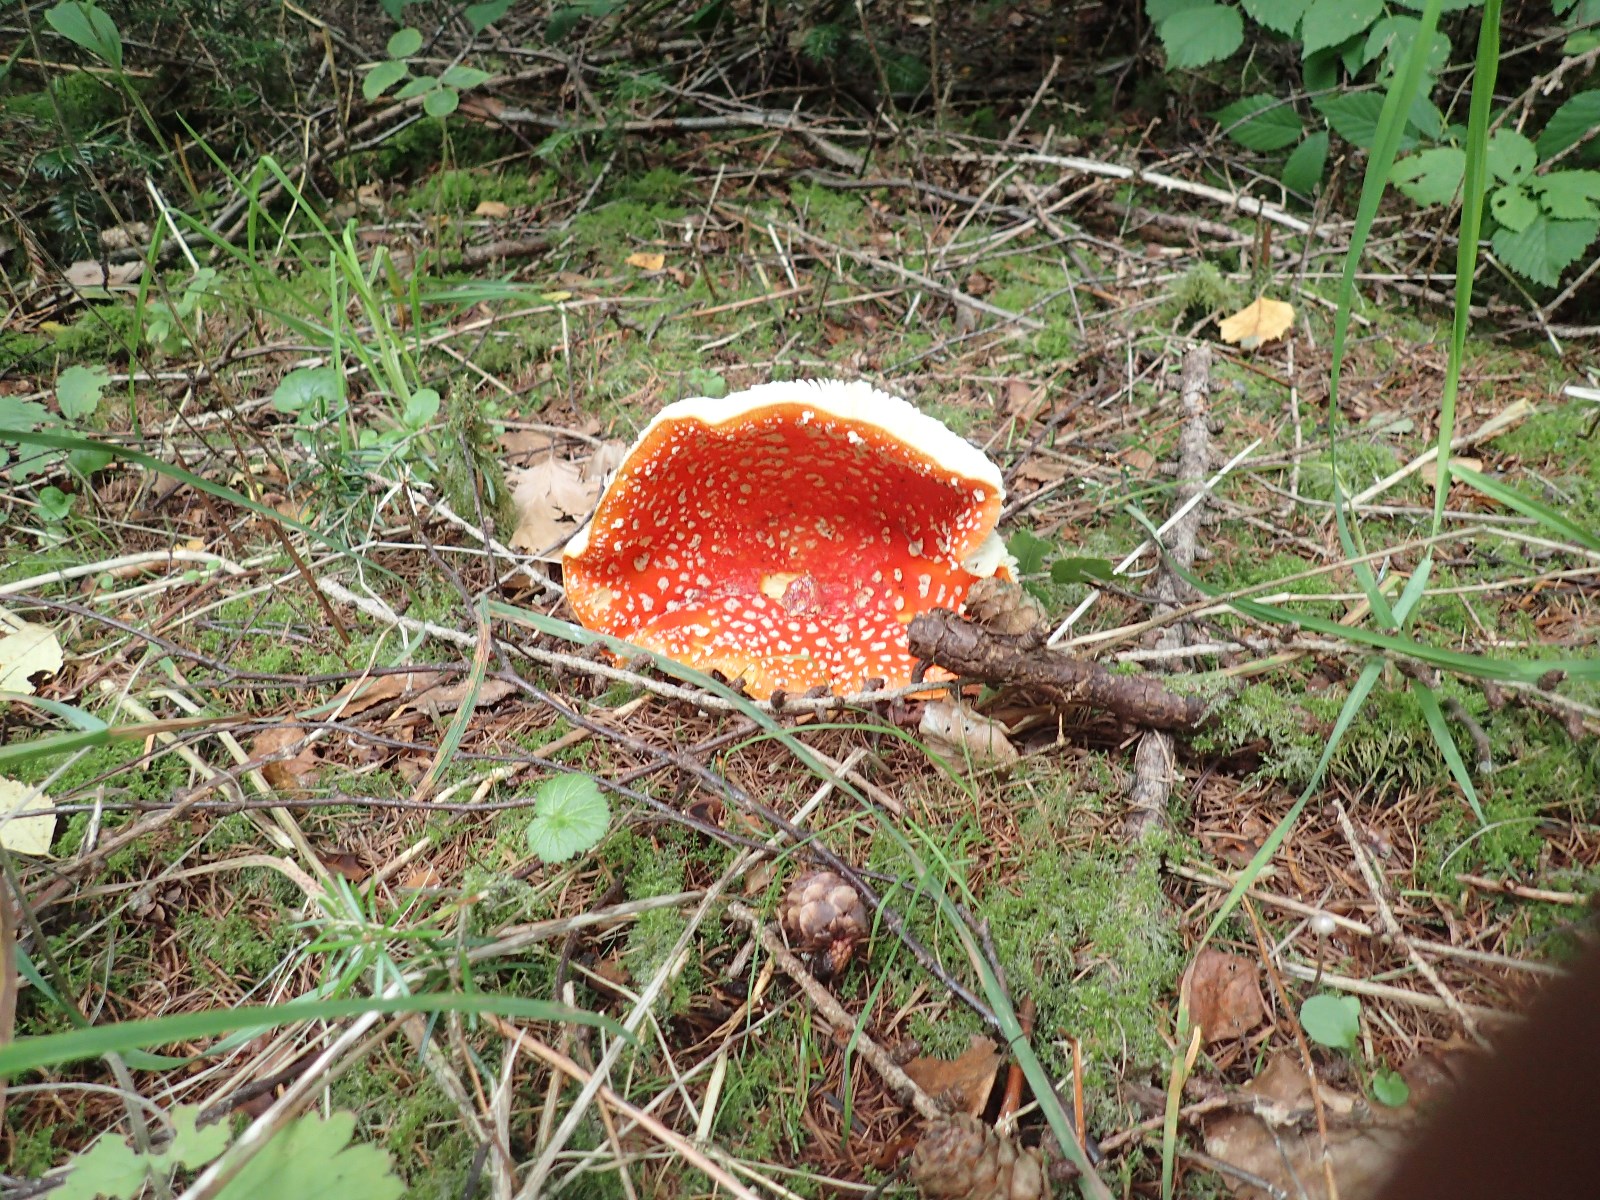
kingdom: Fungi
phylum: Basidiomycota
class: Agaricomycetes
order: Agaricales
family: Amanitaceae
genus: Amanita
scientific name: Amanita muscaria
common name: rød fluesvamp
